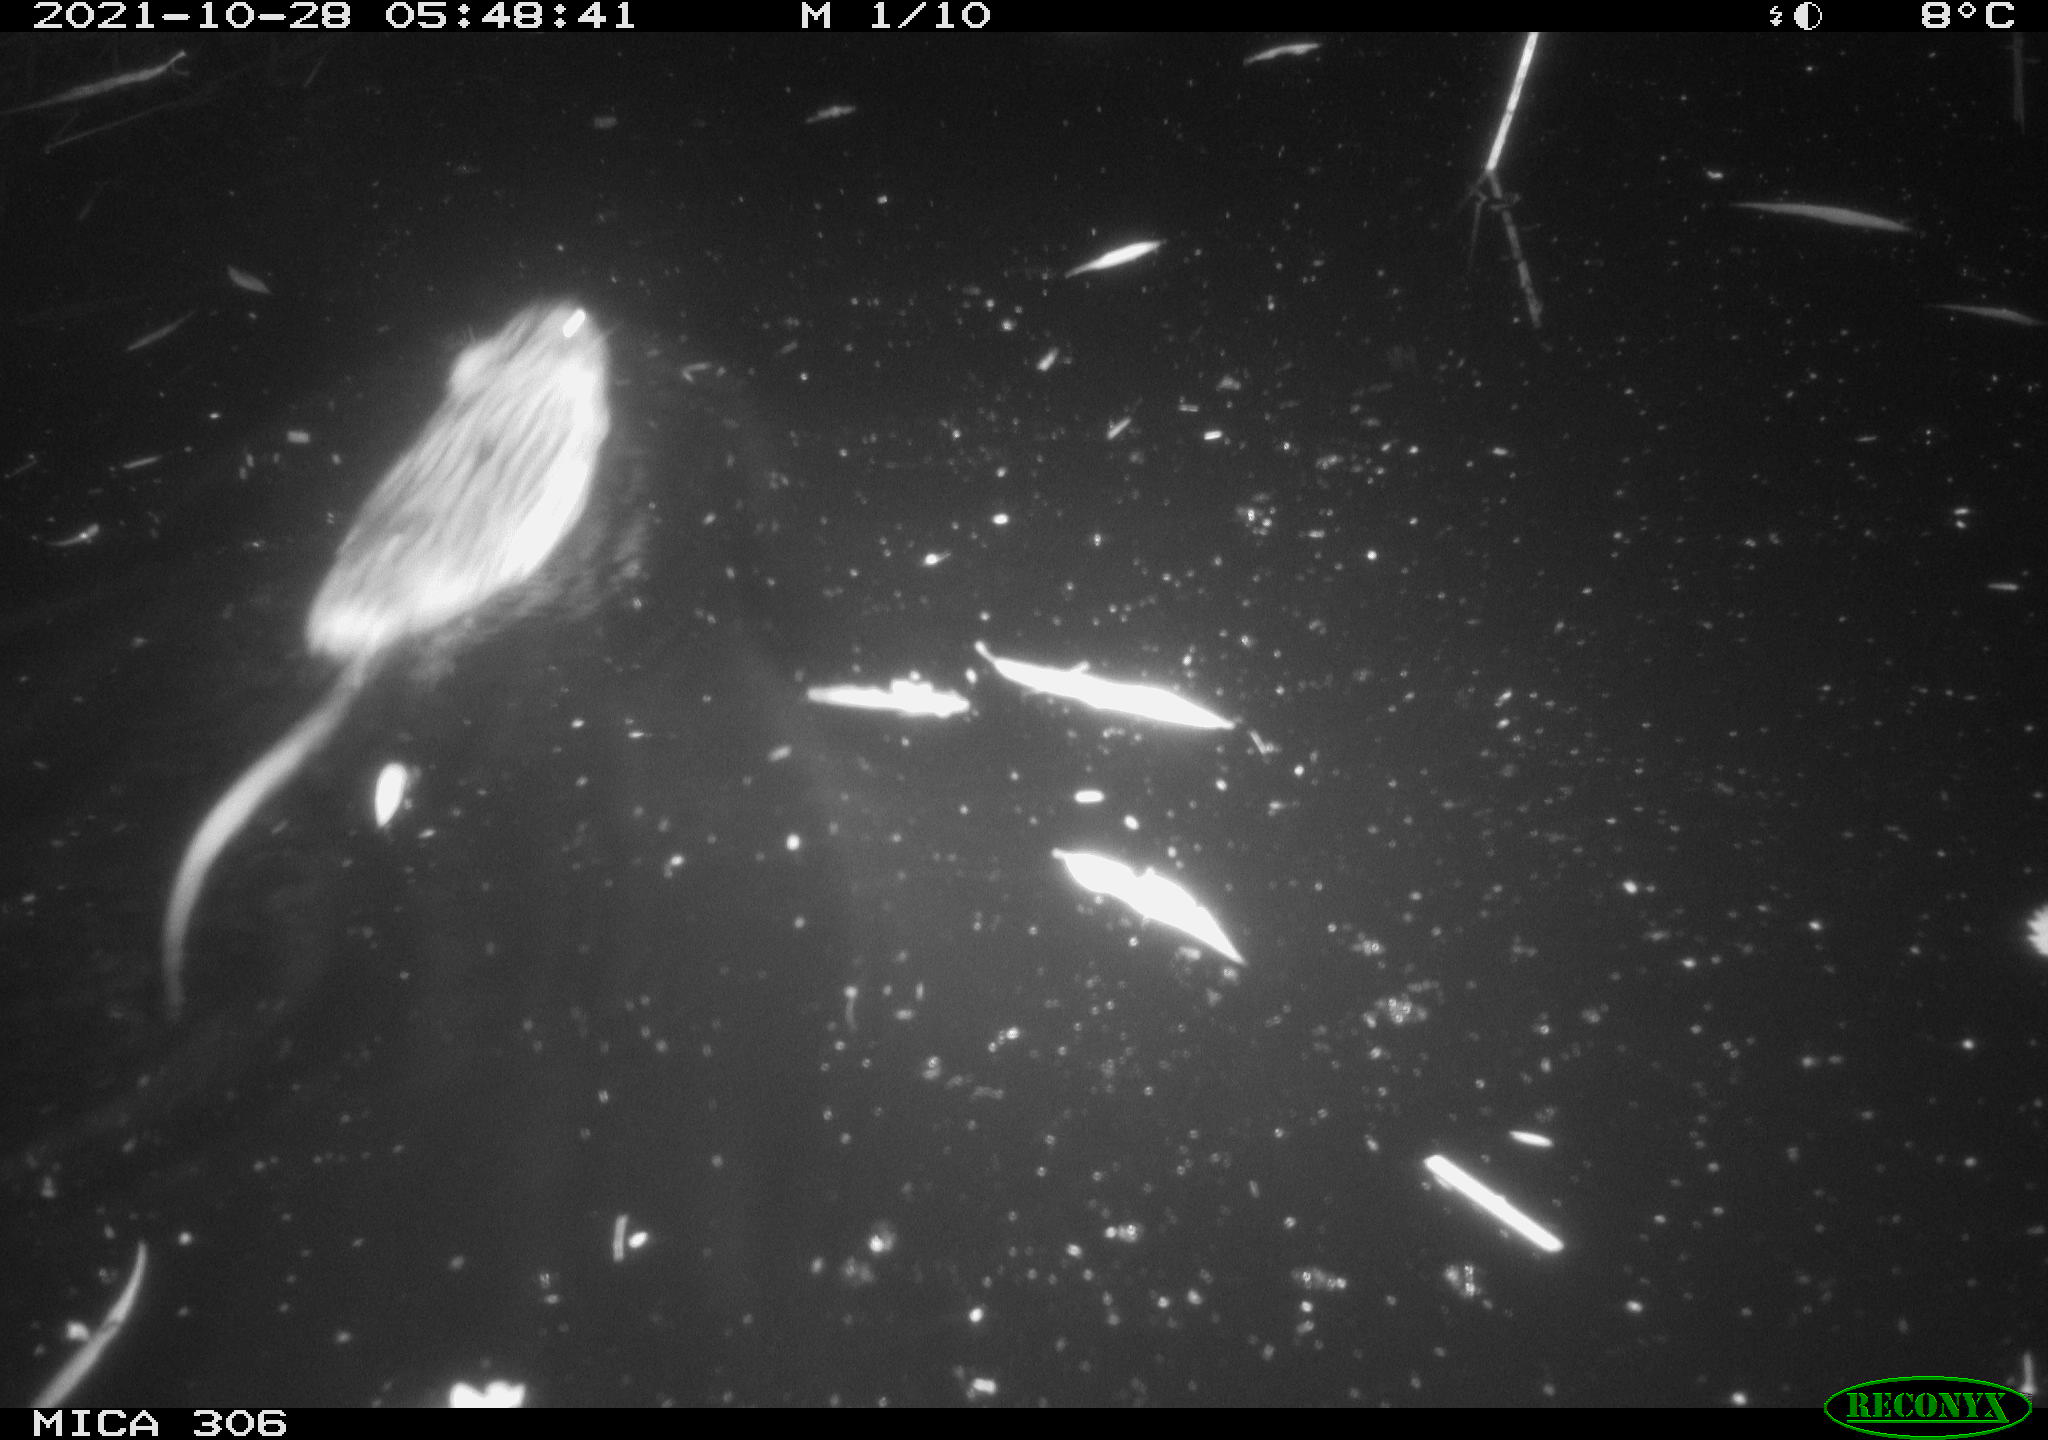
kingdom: Animalia
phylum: Chordata
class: Mammalia
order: Rodentia
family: Cricetidae
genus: Ondatra
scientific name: Ondatra zibethicus
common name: Muskrat
